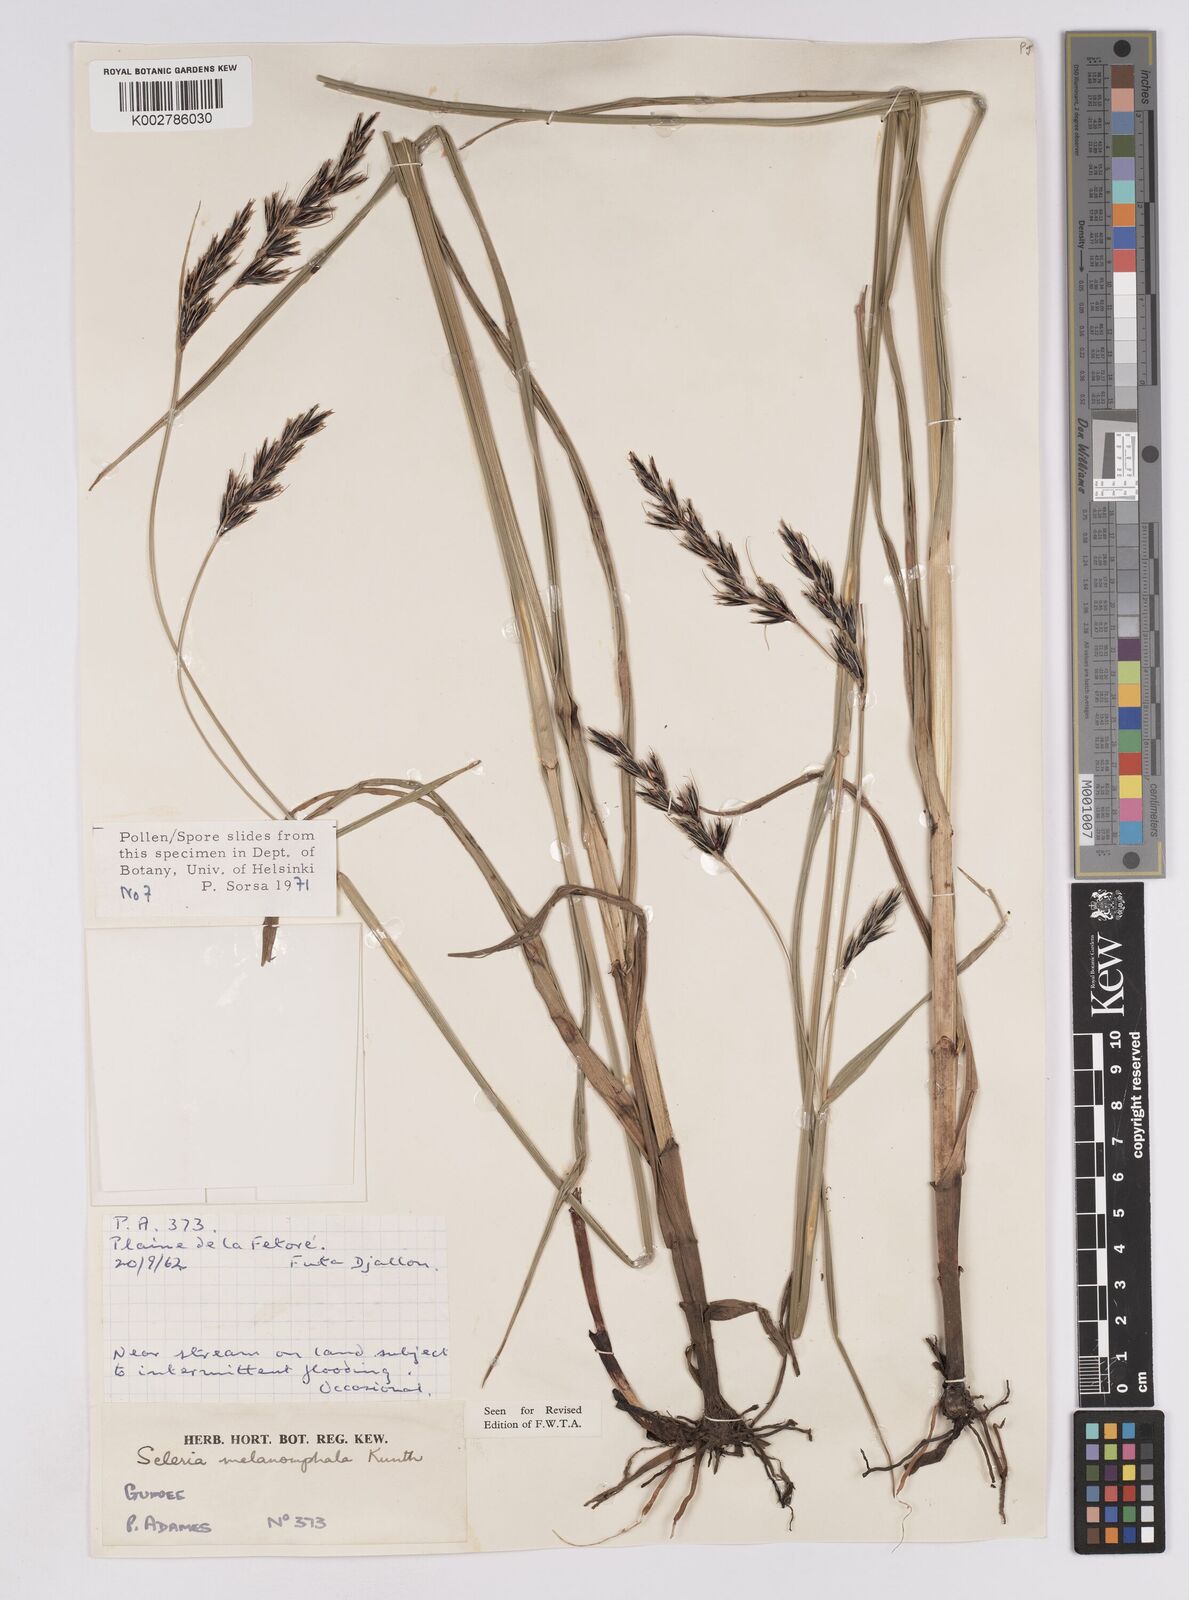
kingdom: Plantae
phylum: Tracheophyta
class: Liliopsida
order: Poales
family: Cyperaceae
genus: Scleria
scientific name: Scleria melanomphala
